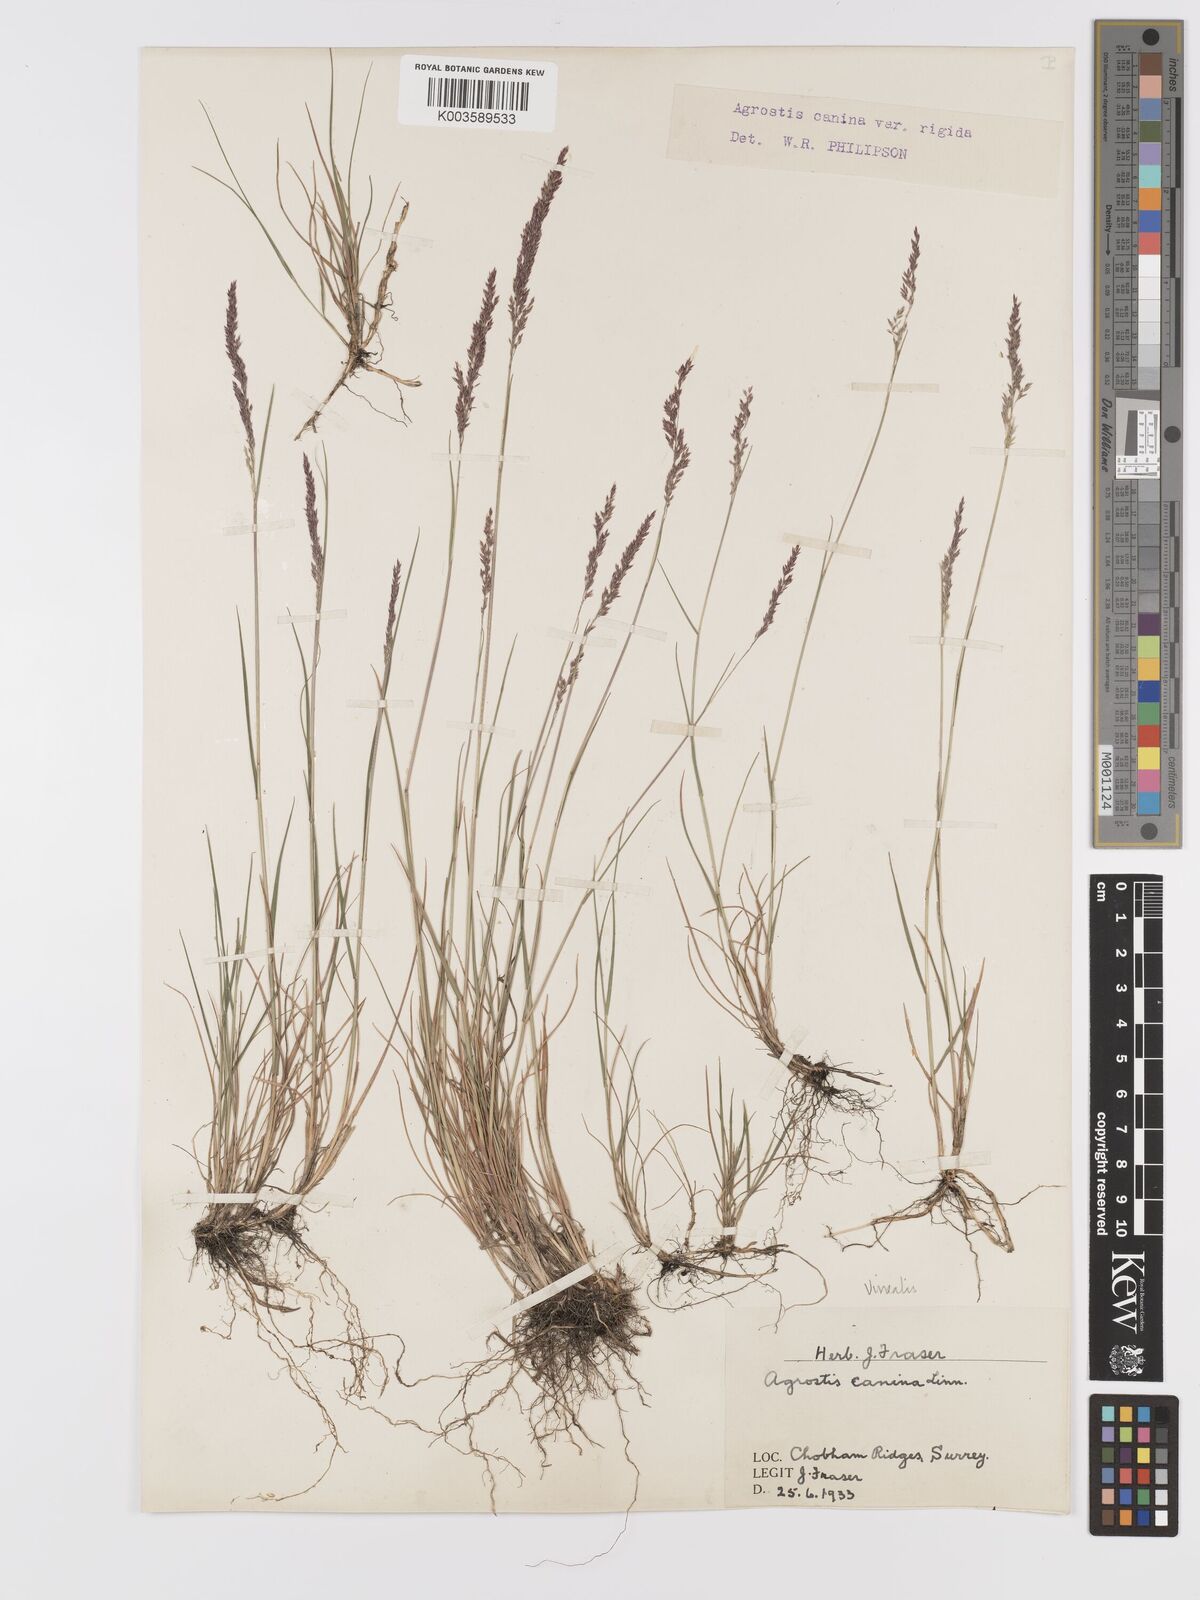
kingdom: Plantae
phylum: Tracheophyta
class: Liliopsida
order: Poales
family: Poaceae
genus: Agrostis
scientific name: Agrostis
